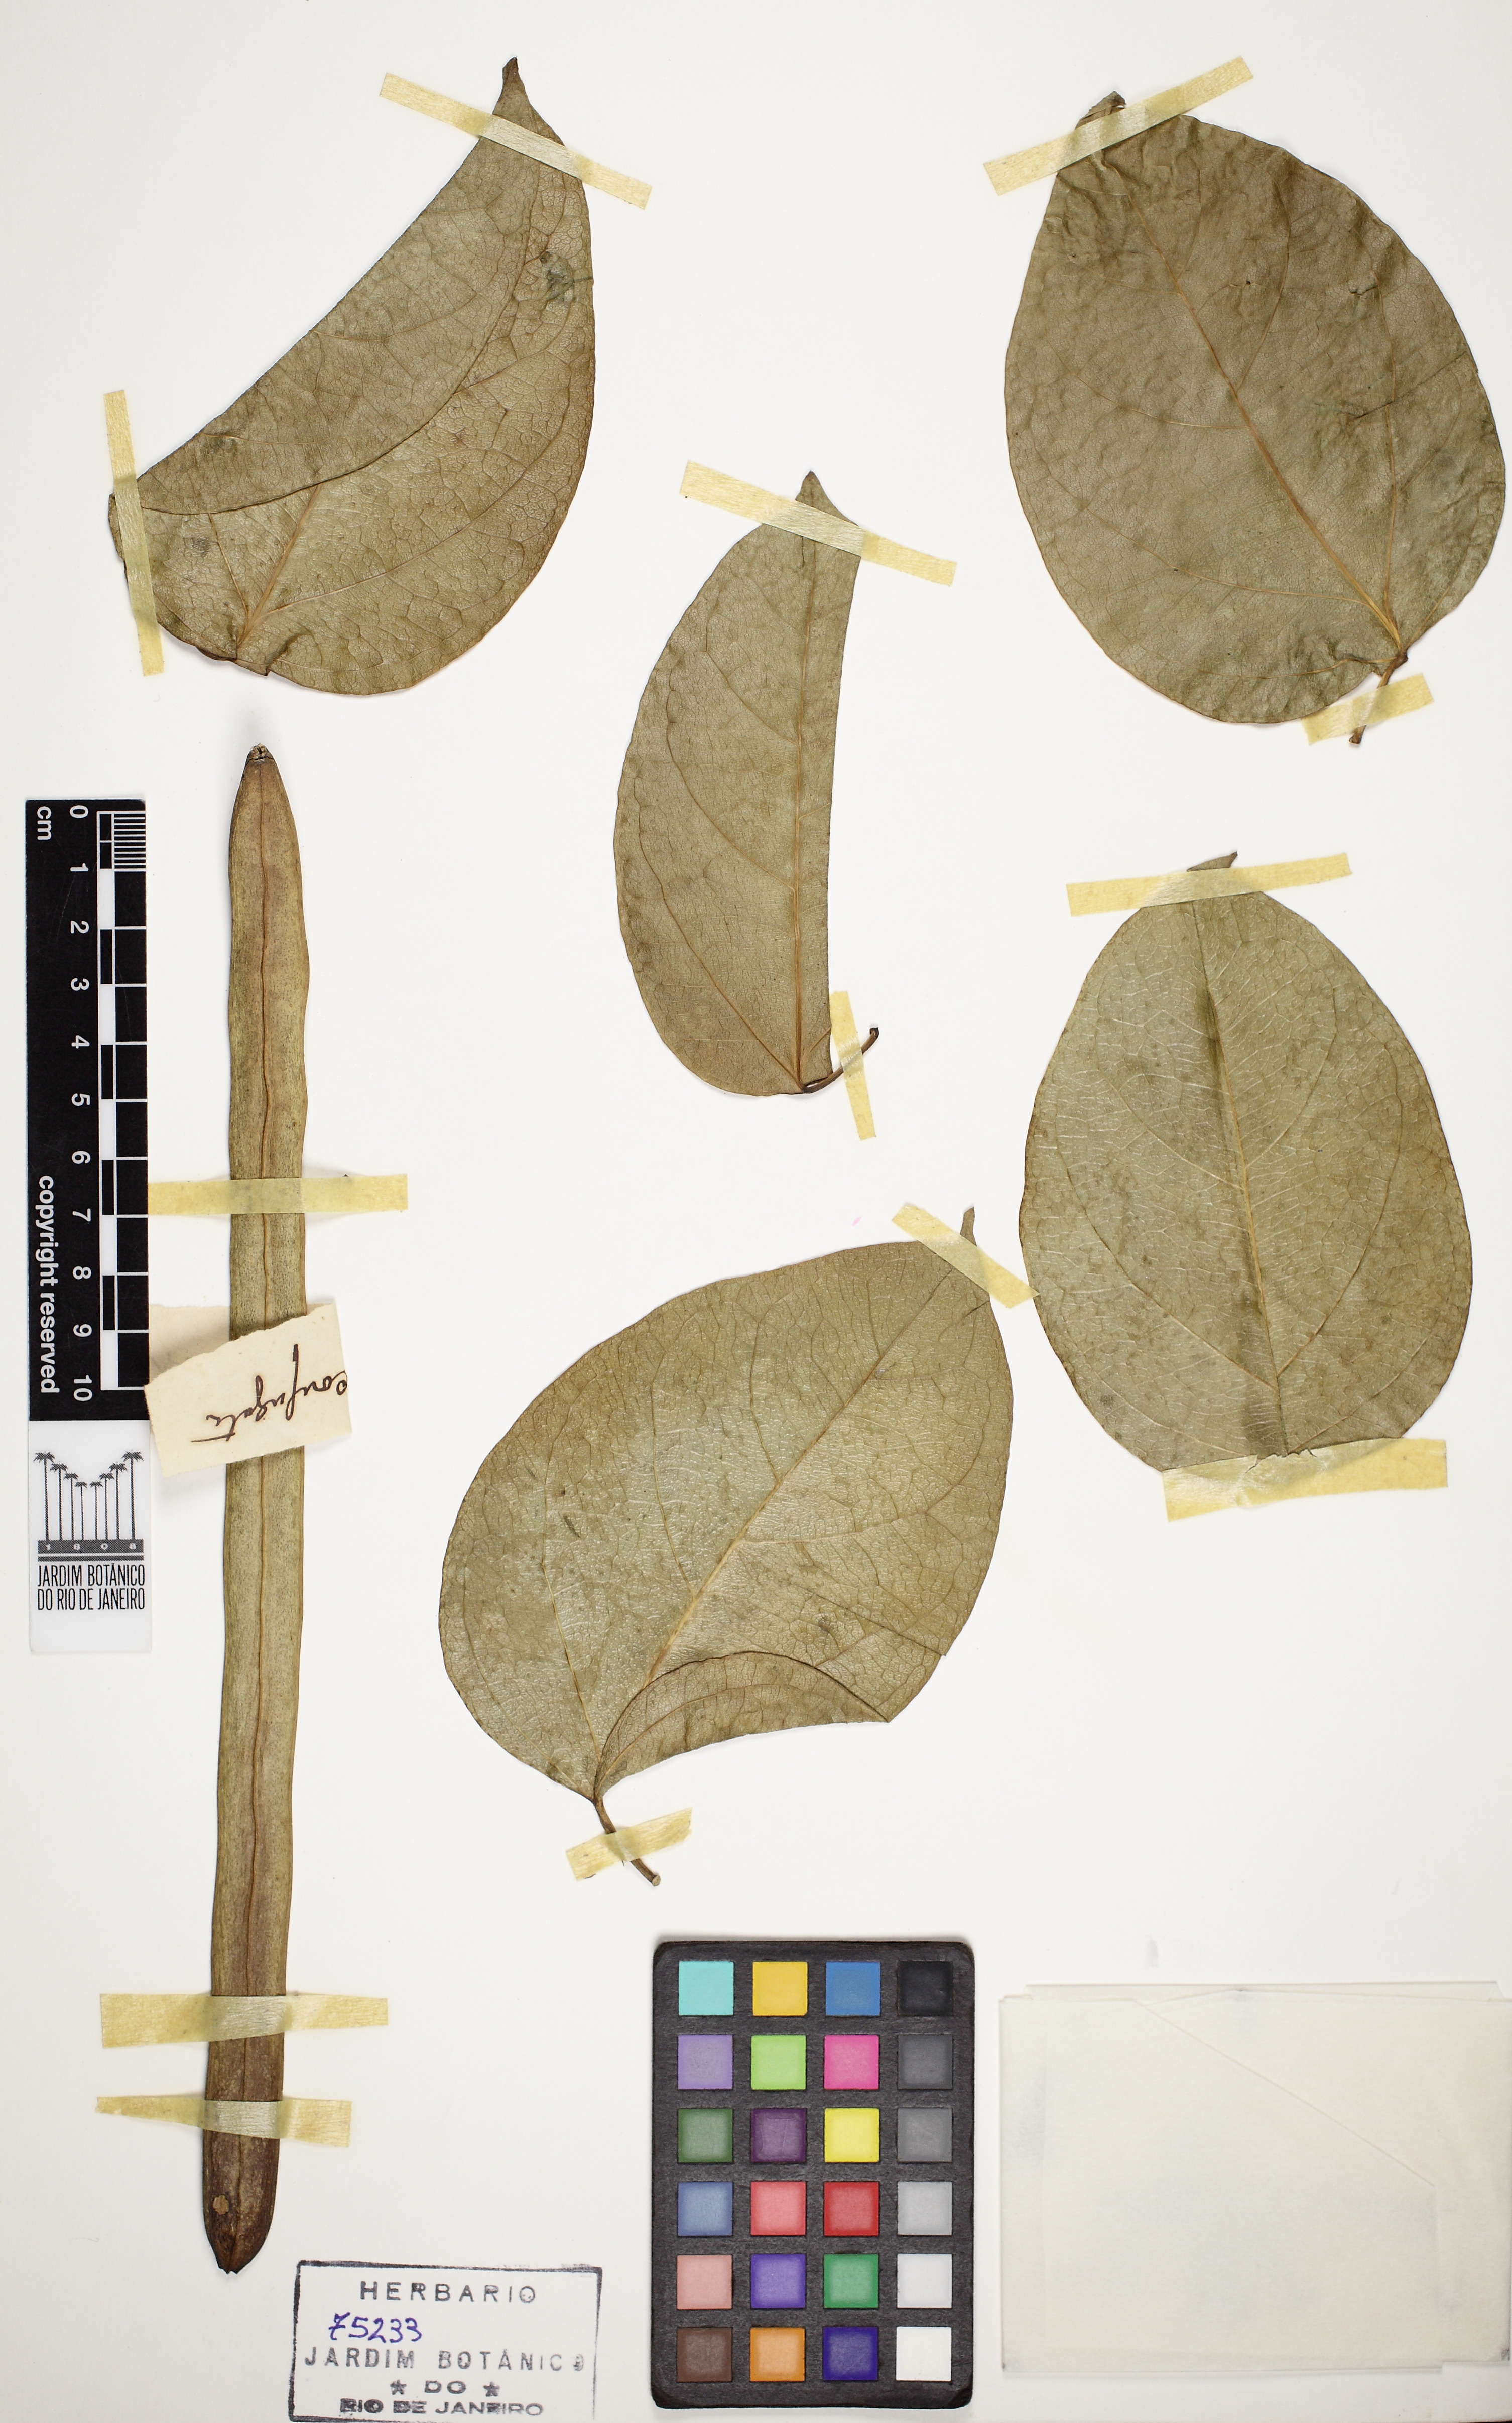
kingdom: Plantae
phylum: Tracheophyta
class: Magnoliopsida
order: Lamiales
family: Bignoniaceae
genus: Fridericia
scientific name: Fridericia conjugata
